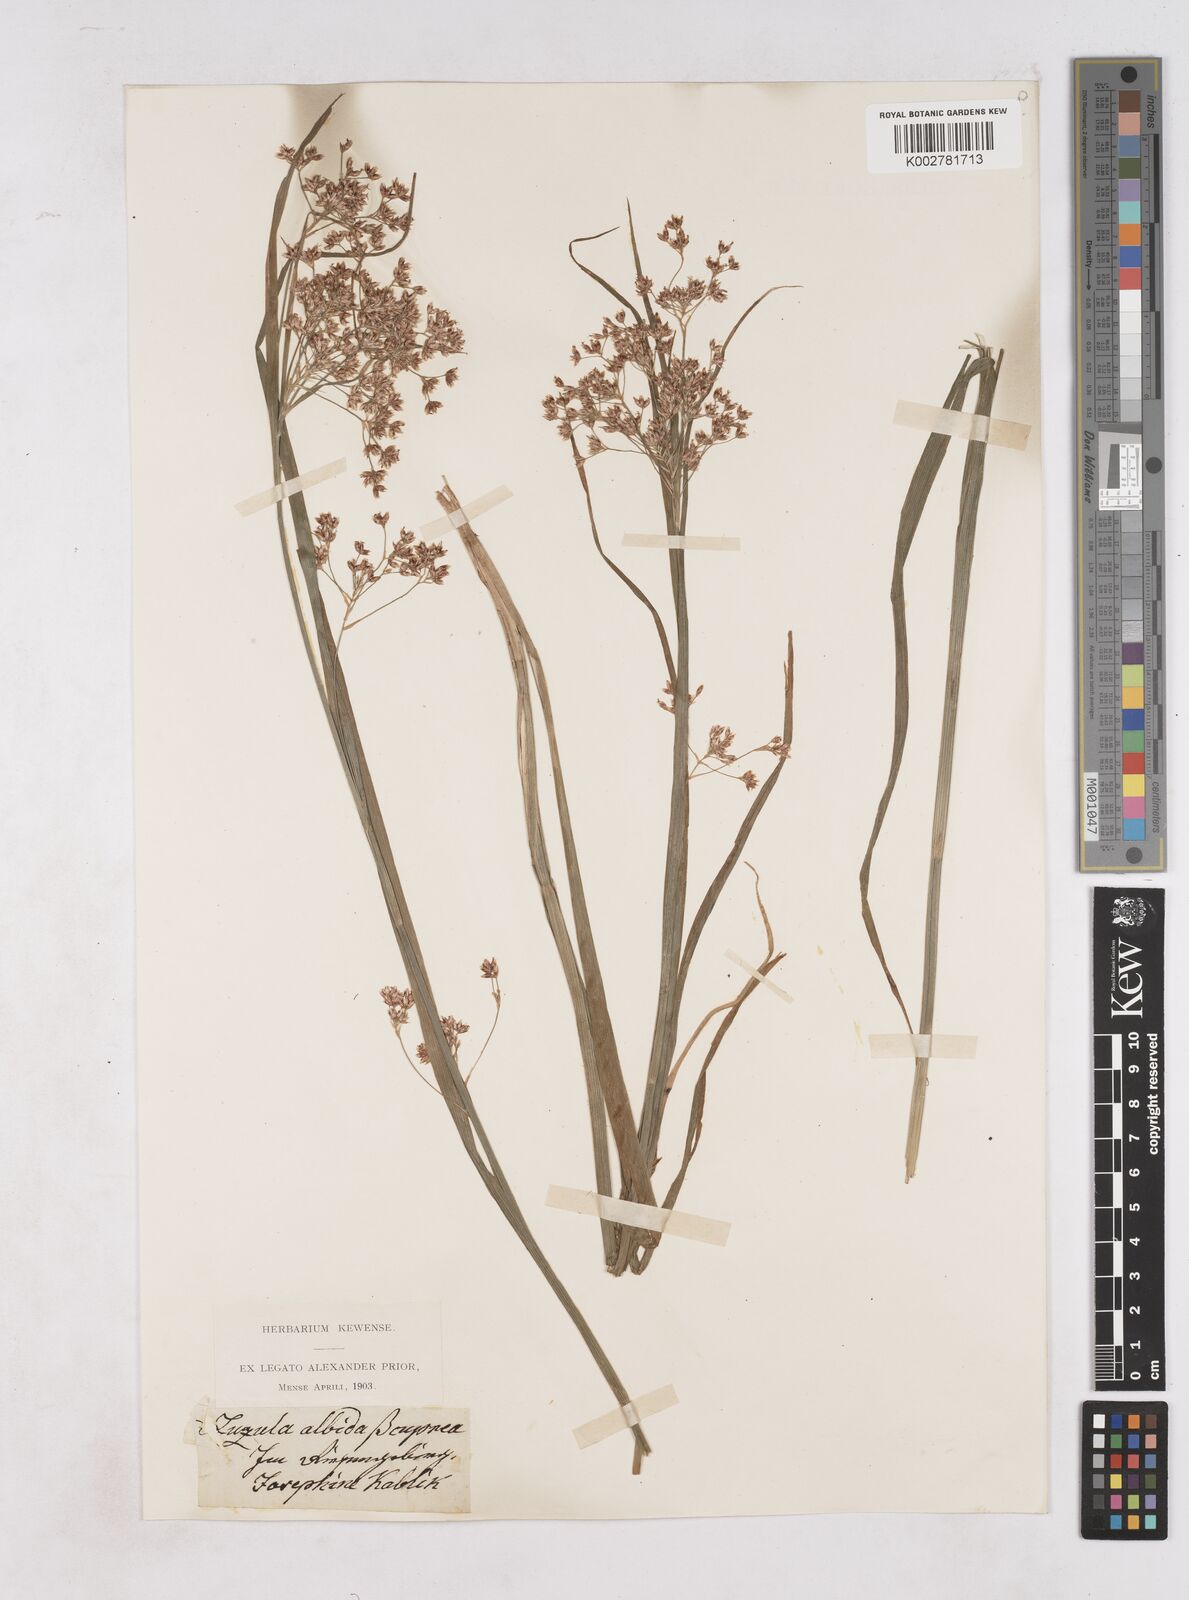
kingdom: Plantae
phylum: Tracheophyta
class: Liliopsida
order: Poales
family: Juncaceae
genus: Luzula
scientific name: Luzula luzuloides
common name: White wood-rush
